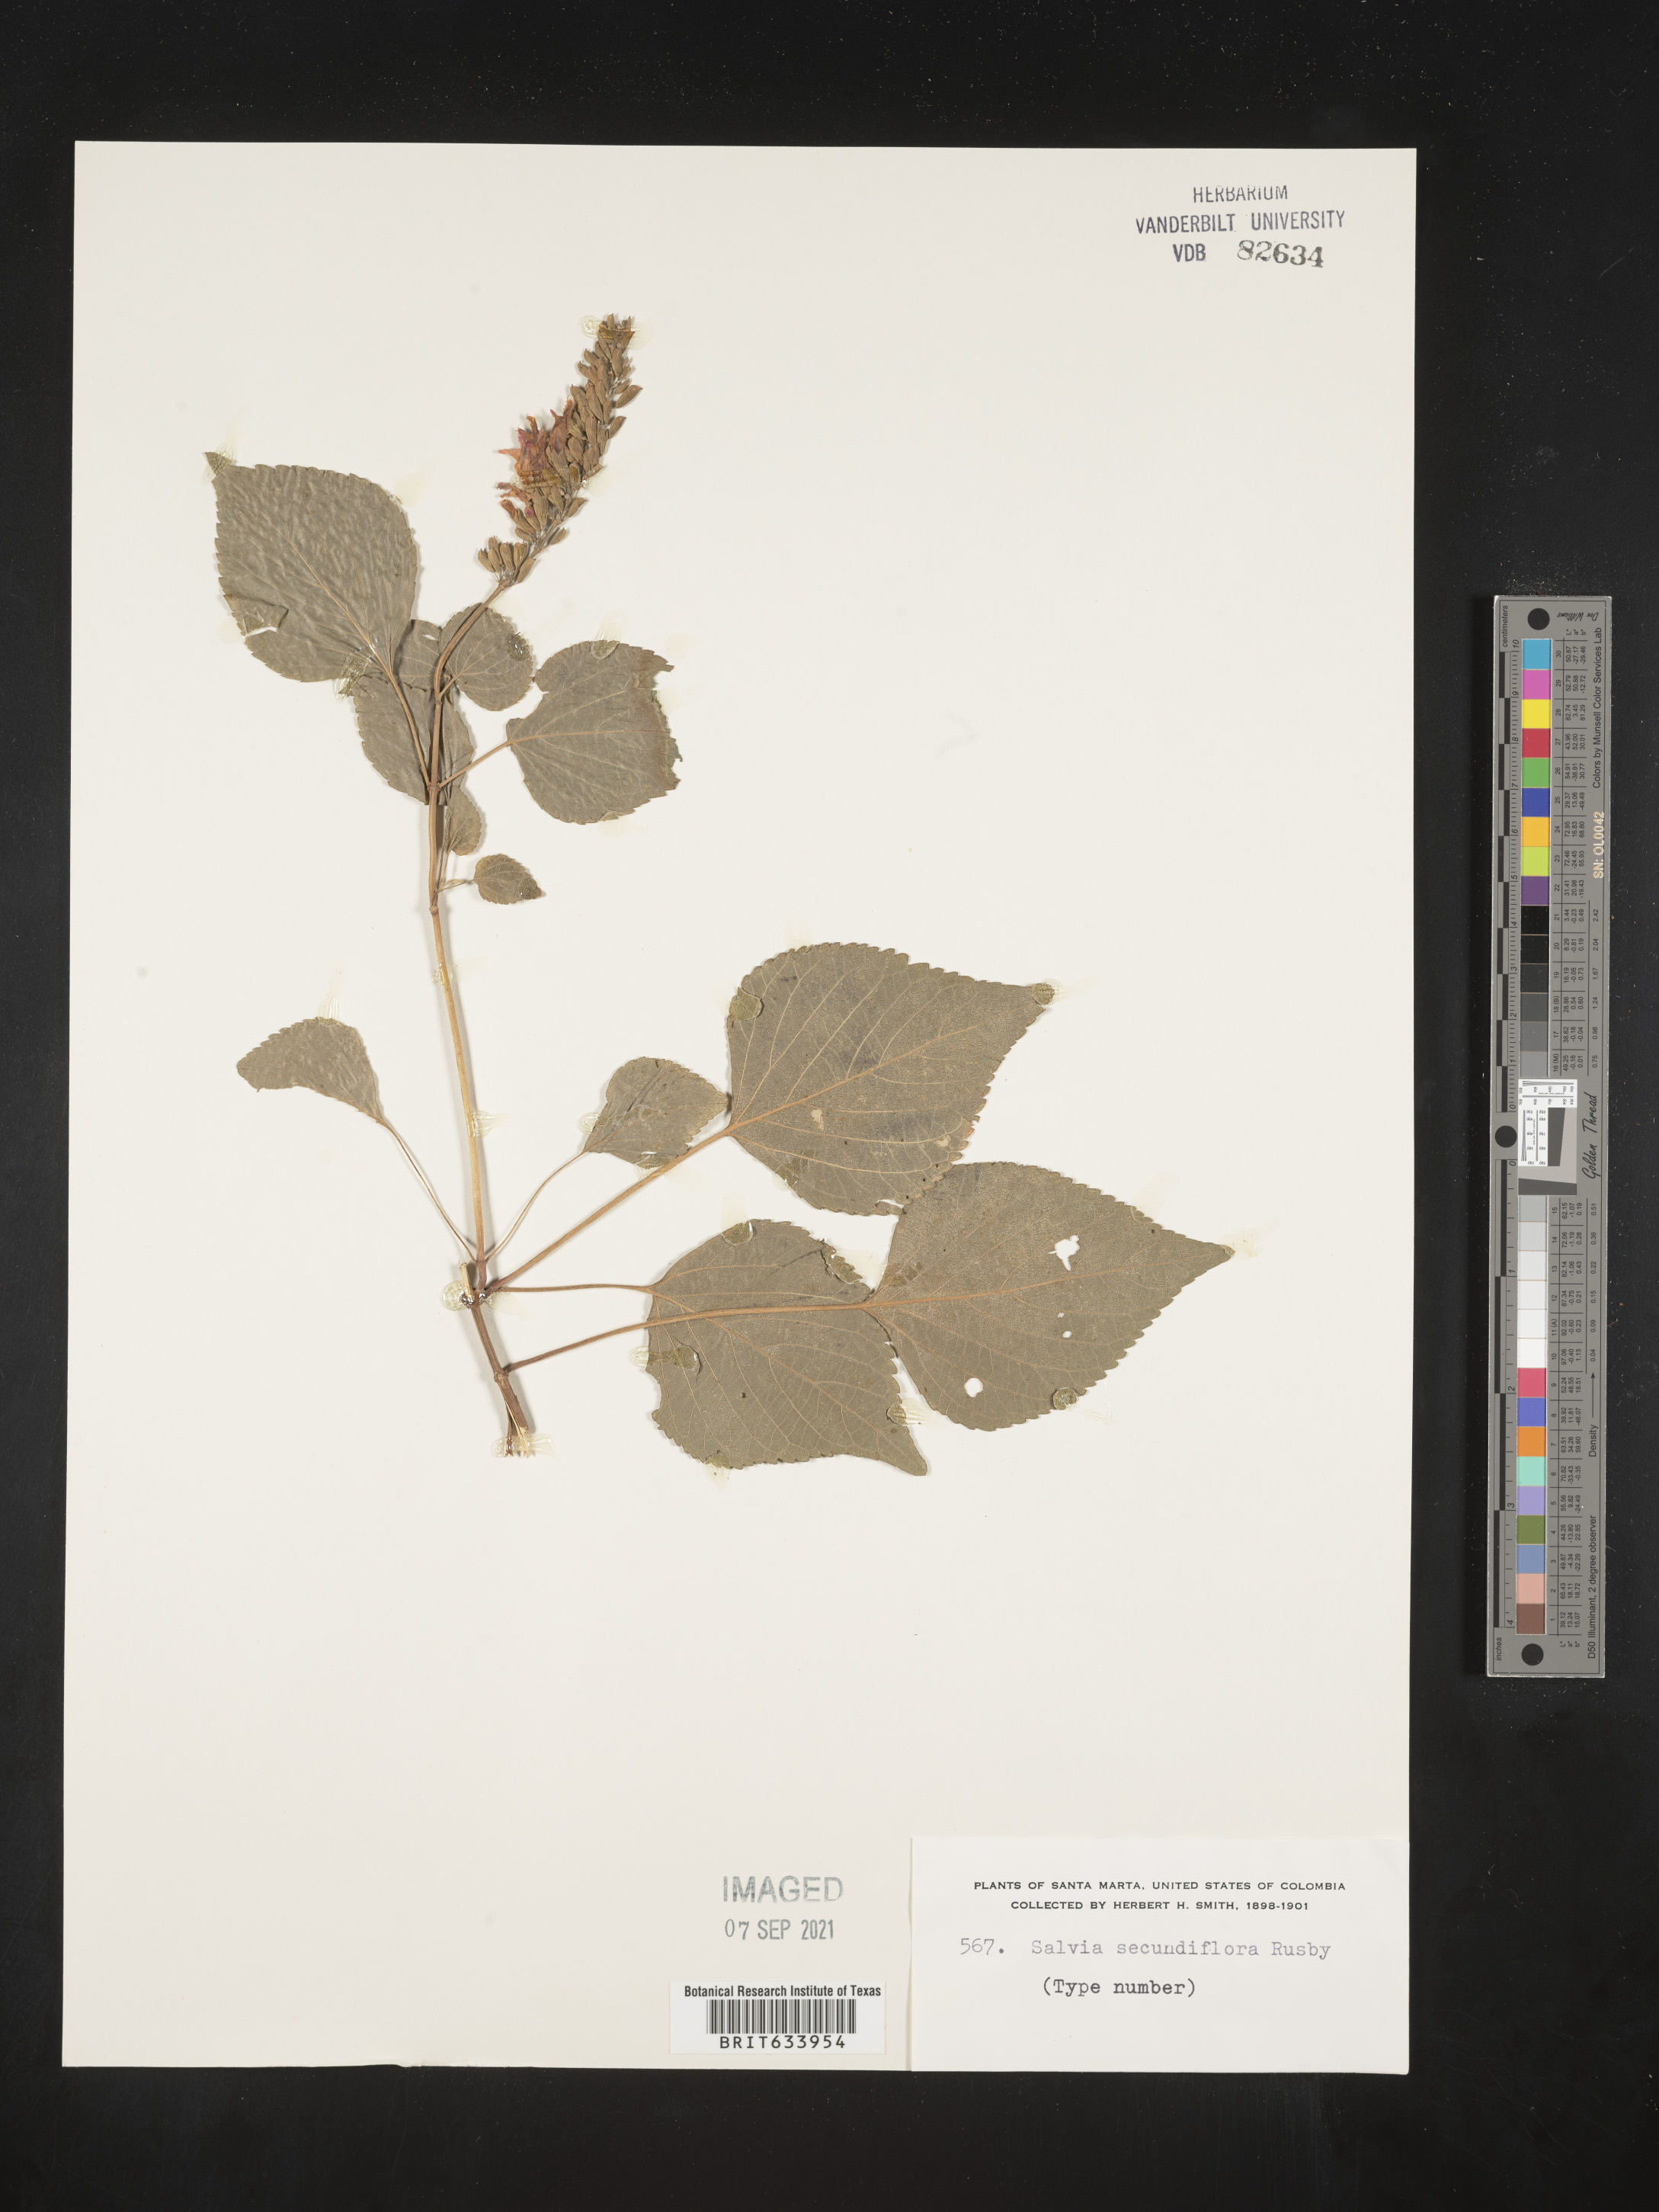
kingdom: Plantae
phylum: Tracheophyta
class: Magnoliopsida
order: Lamiales
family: Lamiaceae
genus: Salvia
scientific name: Salvia
